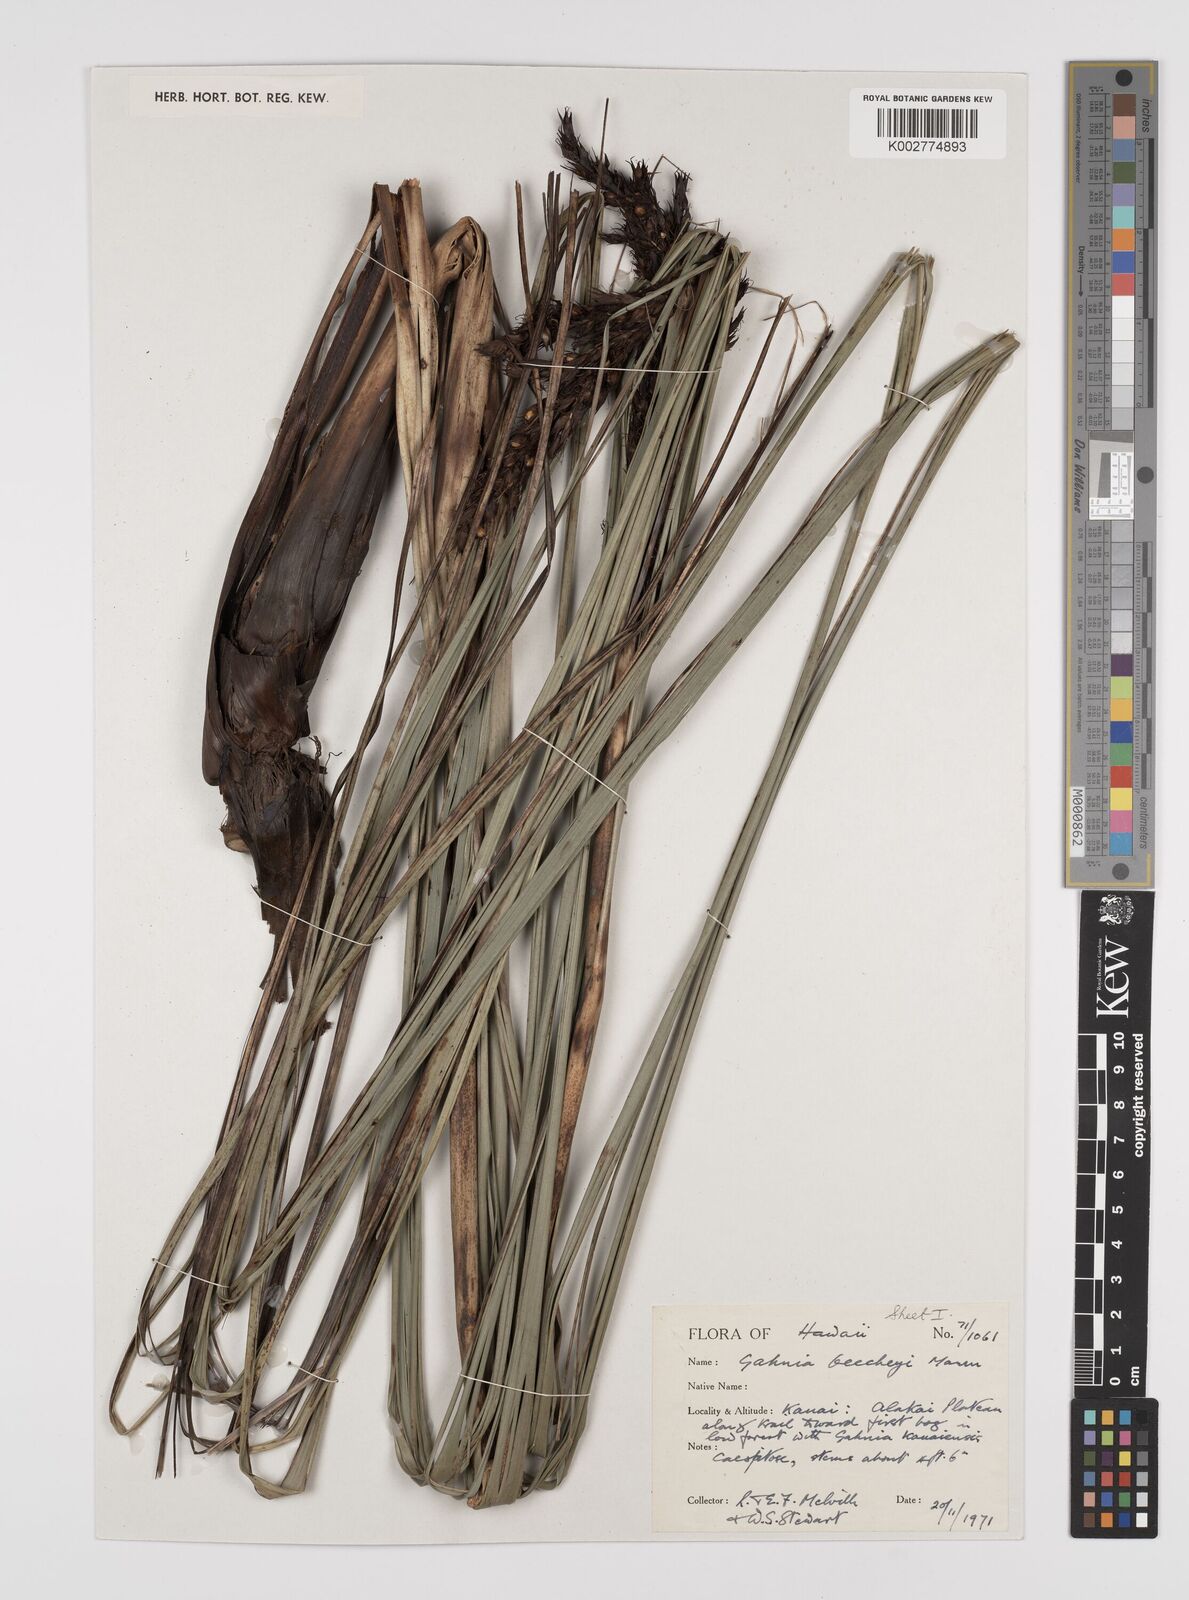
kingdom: Plantae
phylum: Tracheophyta
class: Liliopsida
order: Poales
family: Cyperaceae
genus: Gahnia
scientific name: Gahnia beecheyi
